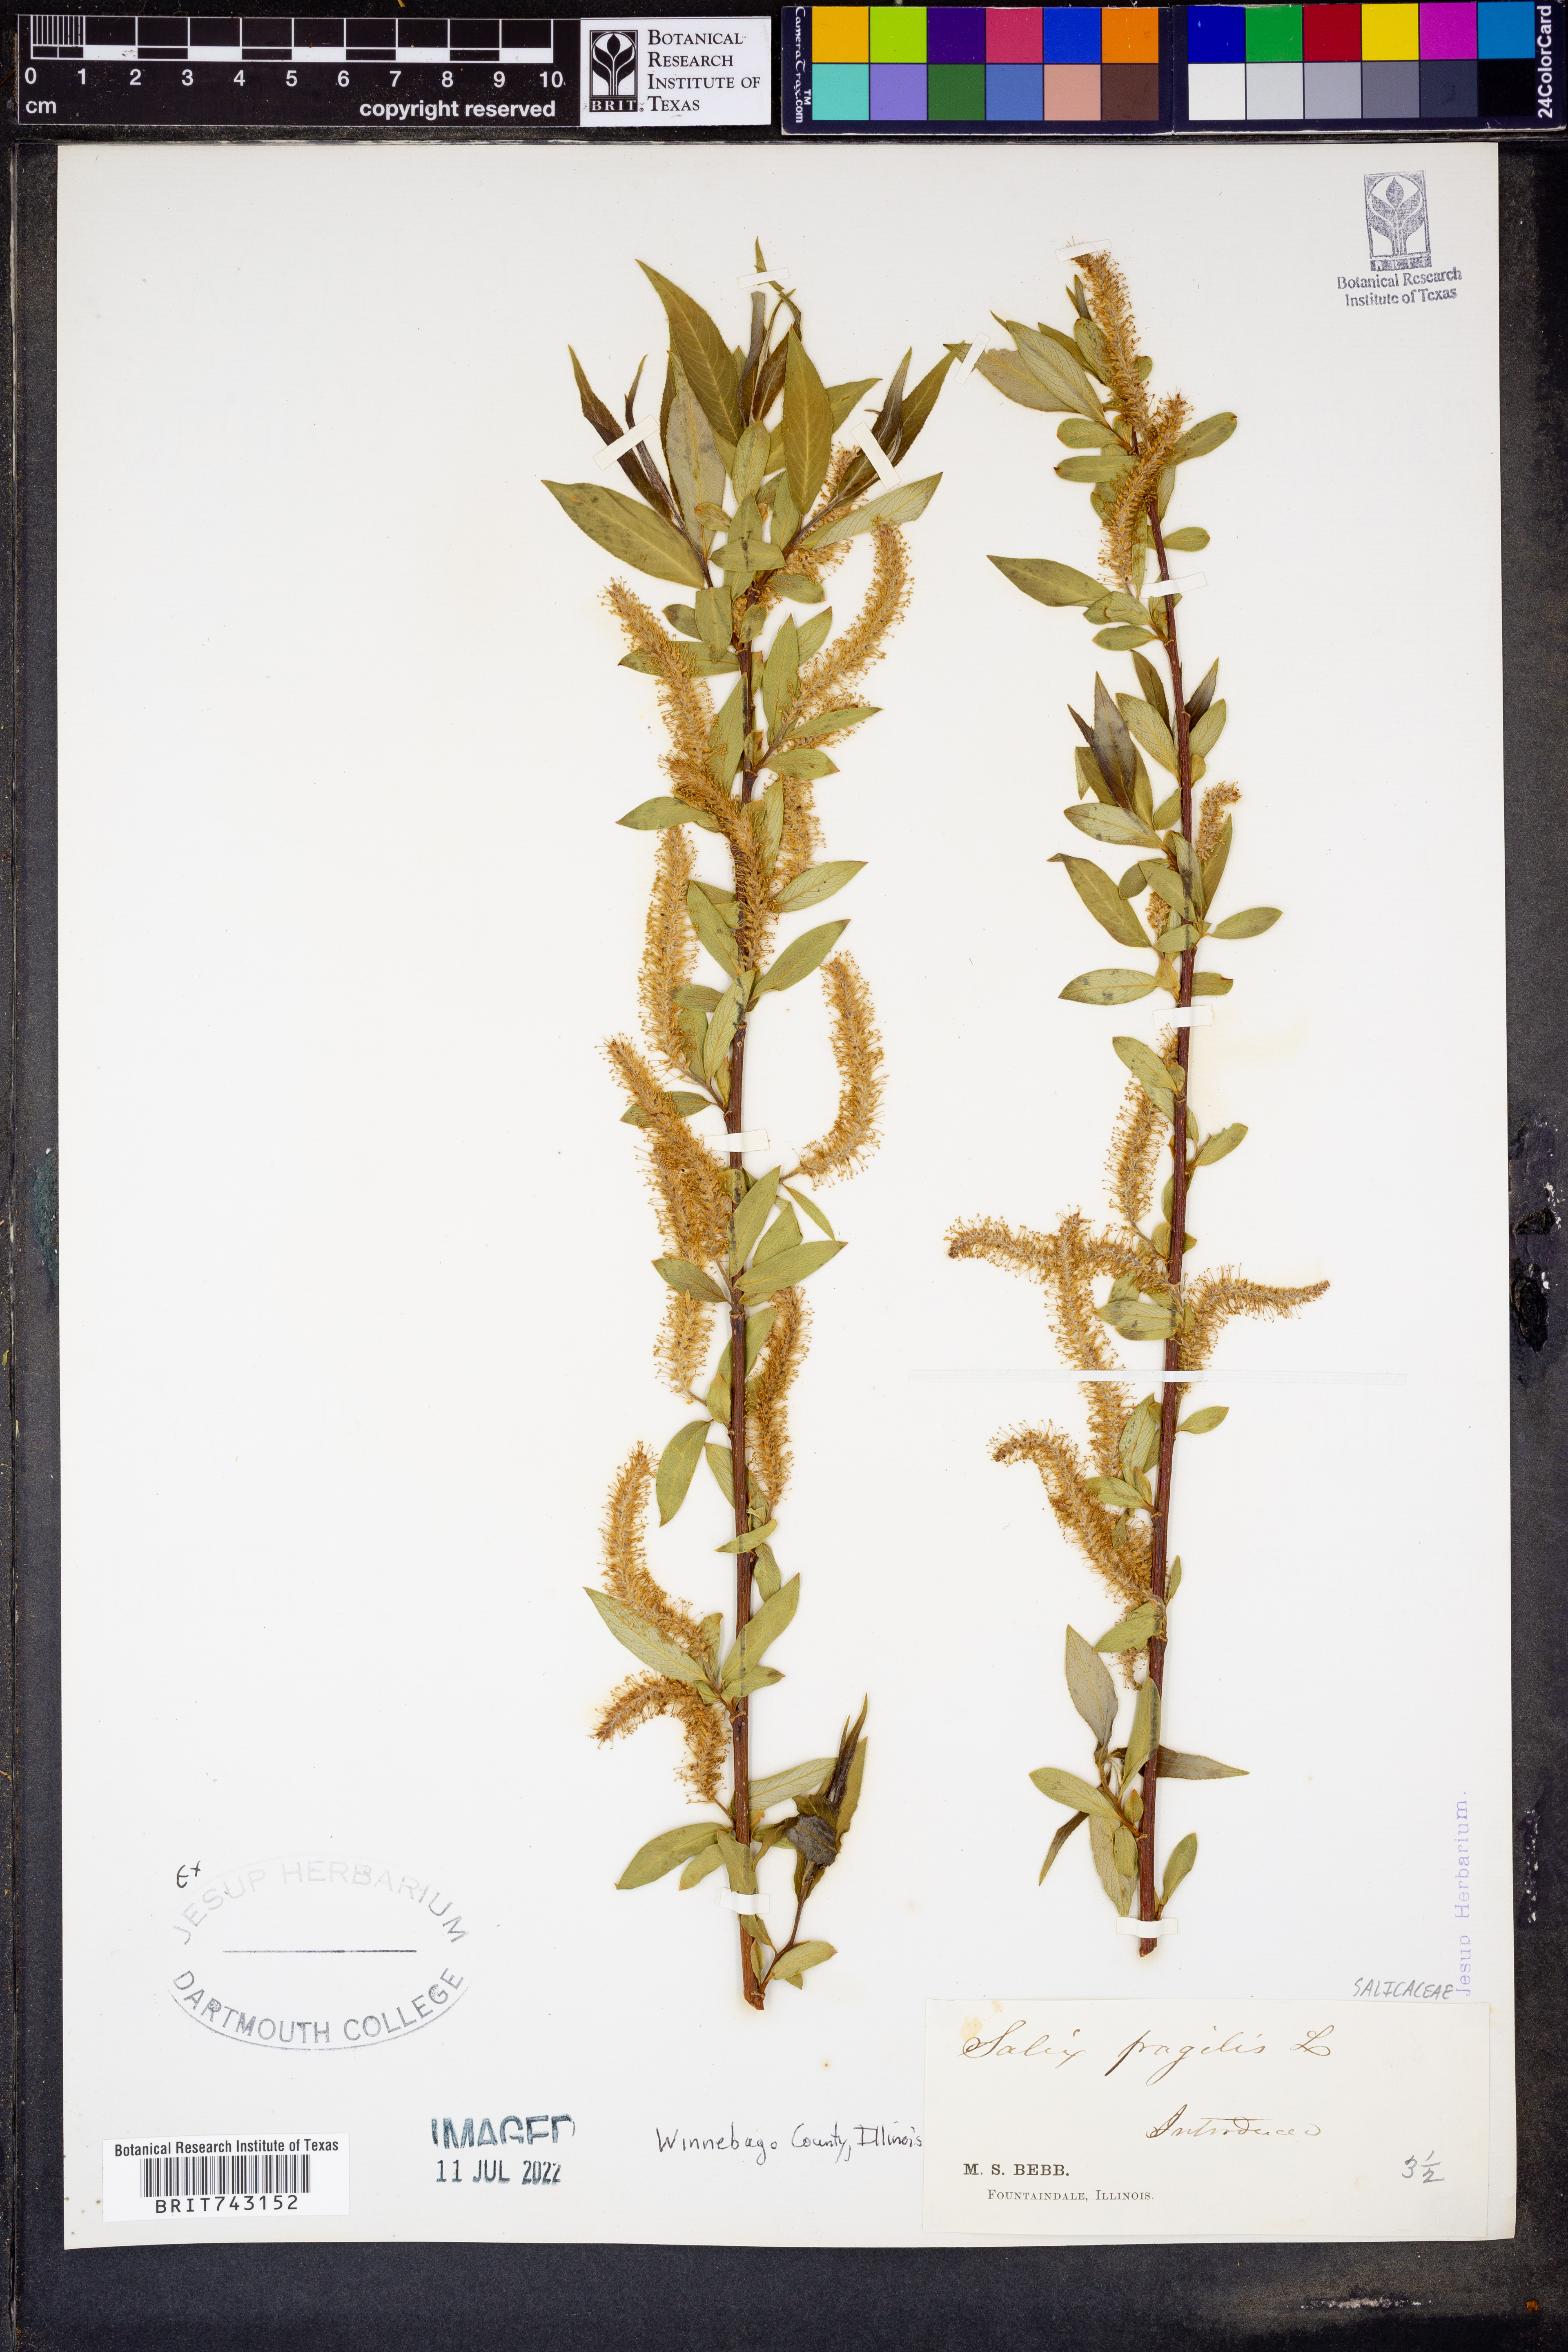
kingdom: Plantae
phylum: Tracheophyta
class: Magnoliopsida
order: Malpighiales
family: Salicaceae
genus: Salix
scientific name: Salix fragilis
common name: Crack willow
